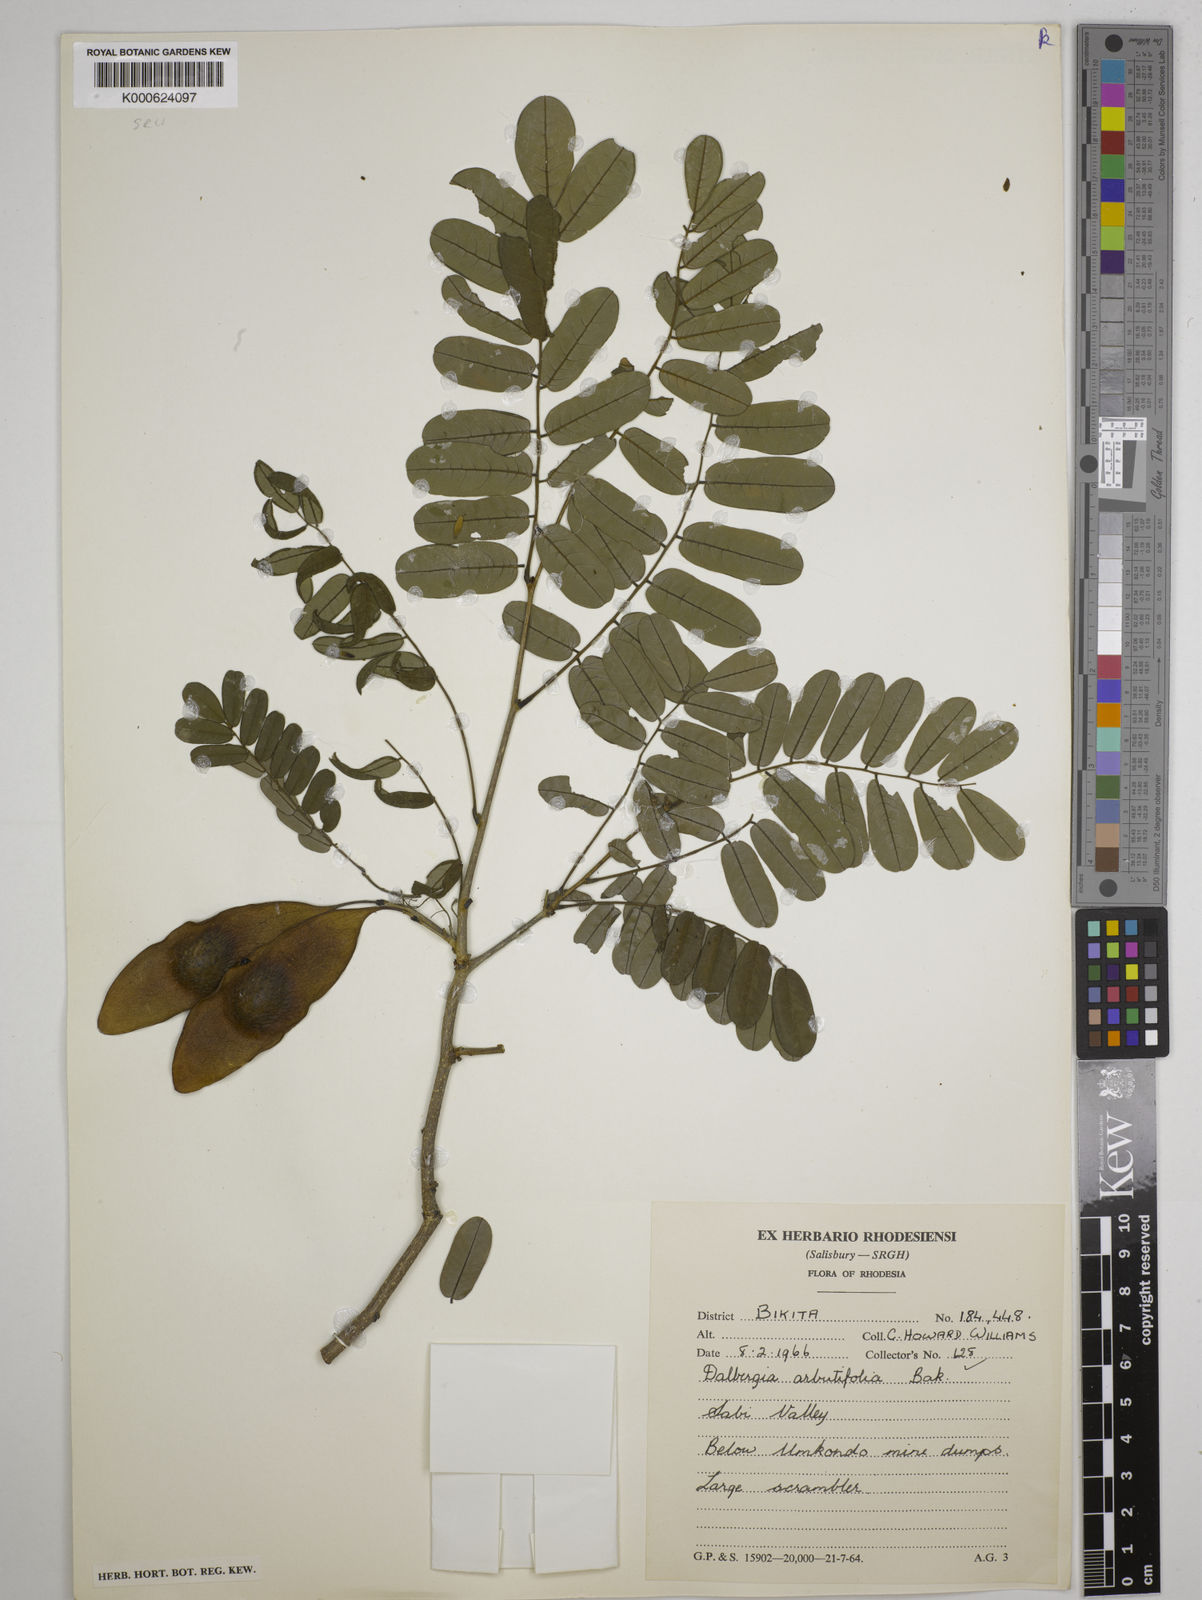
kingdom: Plantae
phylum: Tracheophyta
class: Magnoliopsida
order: Fabales
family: Fabaceae
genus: Dalbergia
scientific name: Dalbergia arbutifolia
